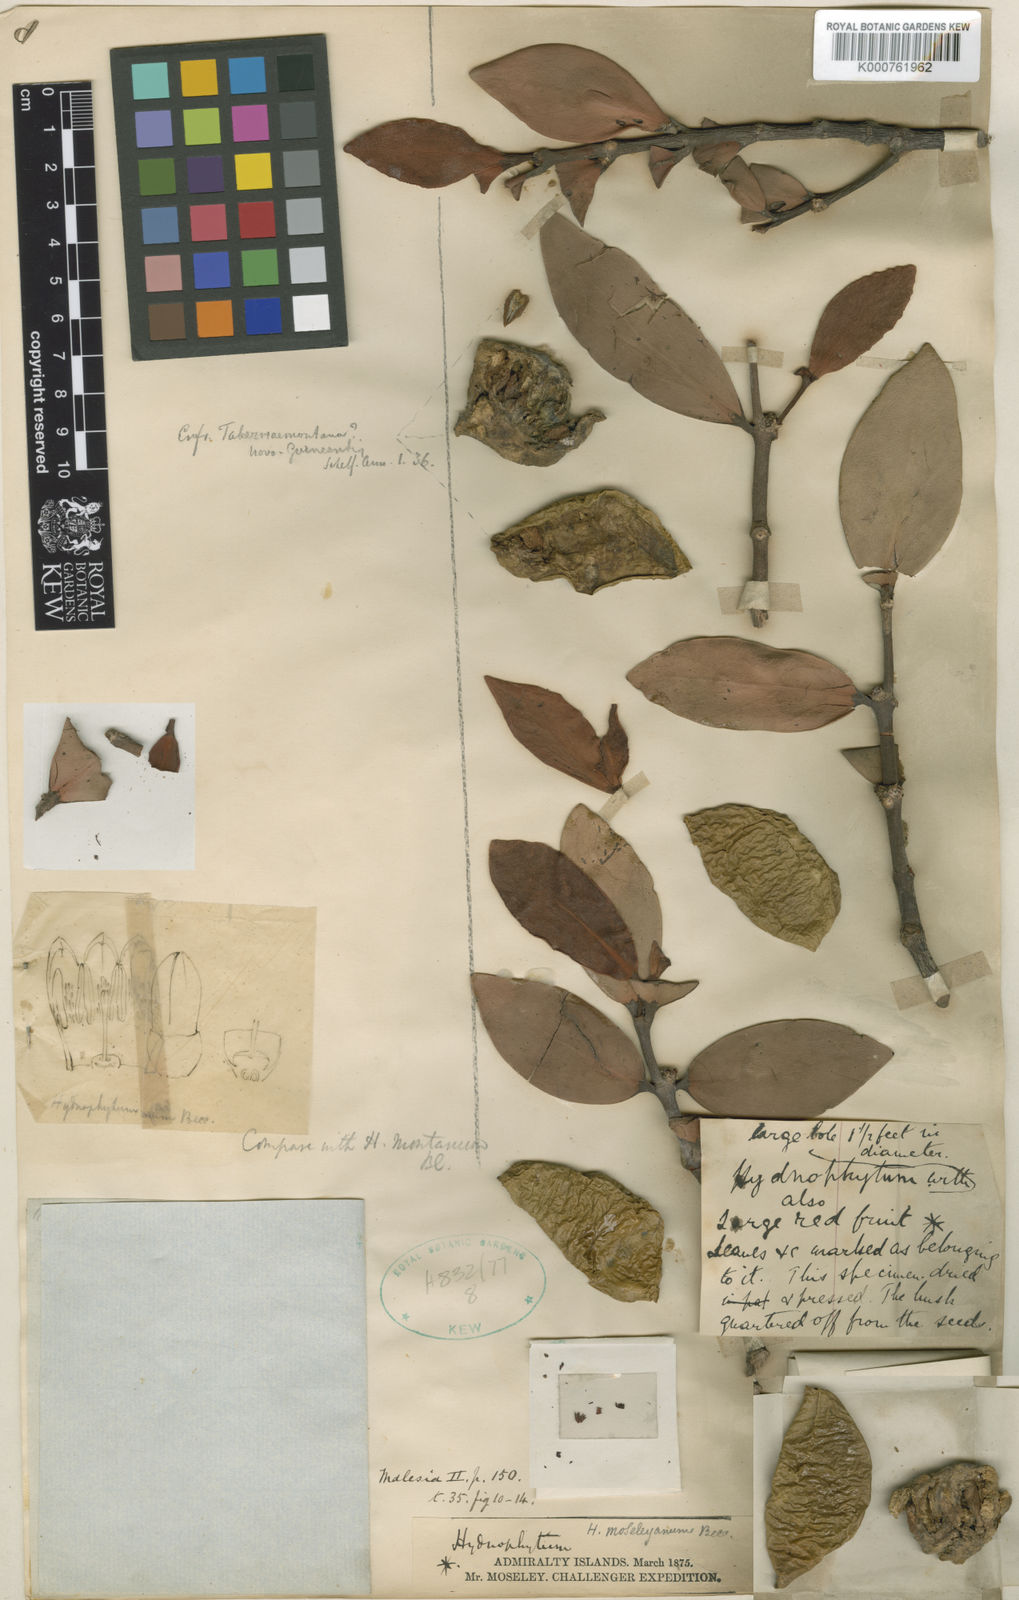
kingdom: Plantae
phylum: Tracheophyta
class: Magnoliopsida
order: Gentianales
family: Rubiaceae
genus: Hydnophytum
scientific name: Hydnophytum moseleyanum
